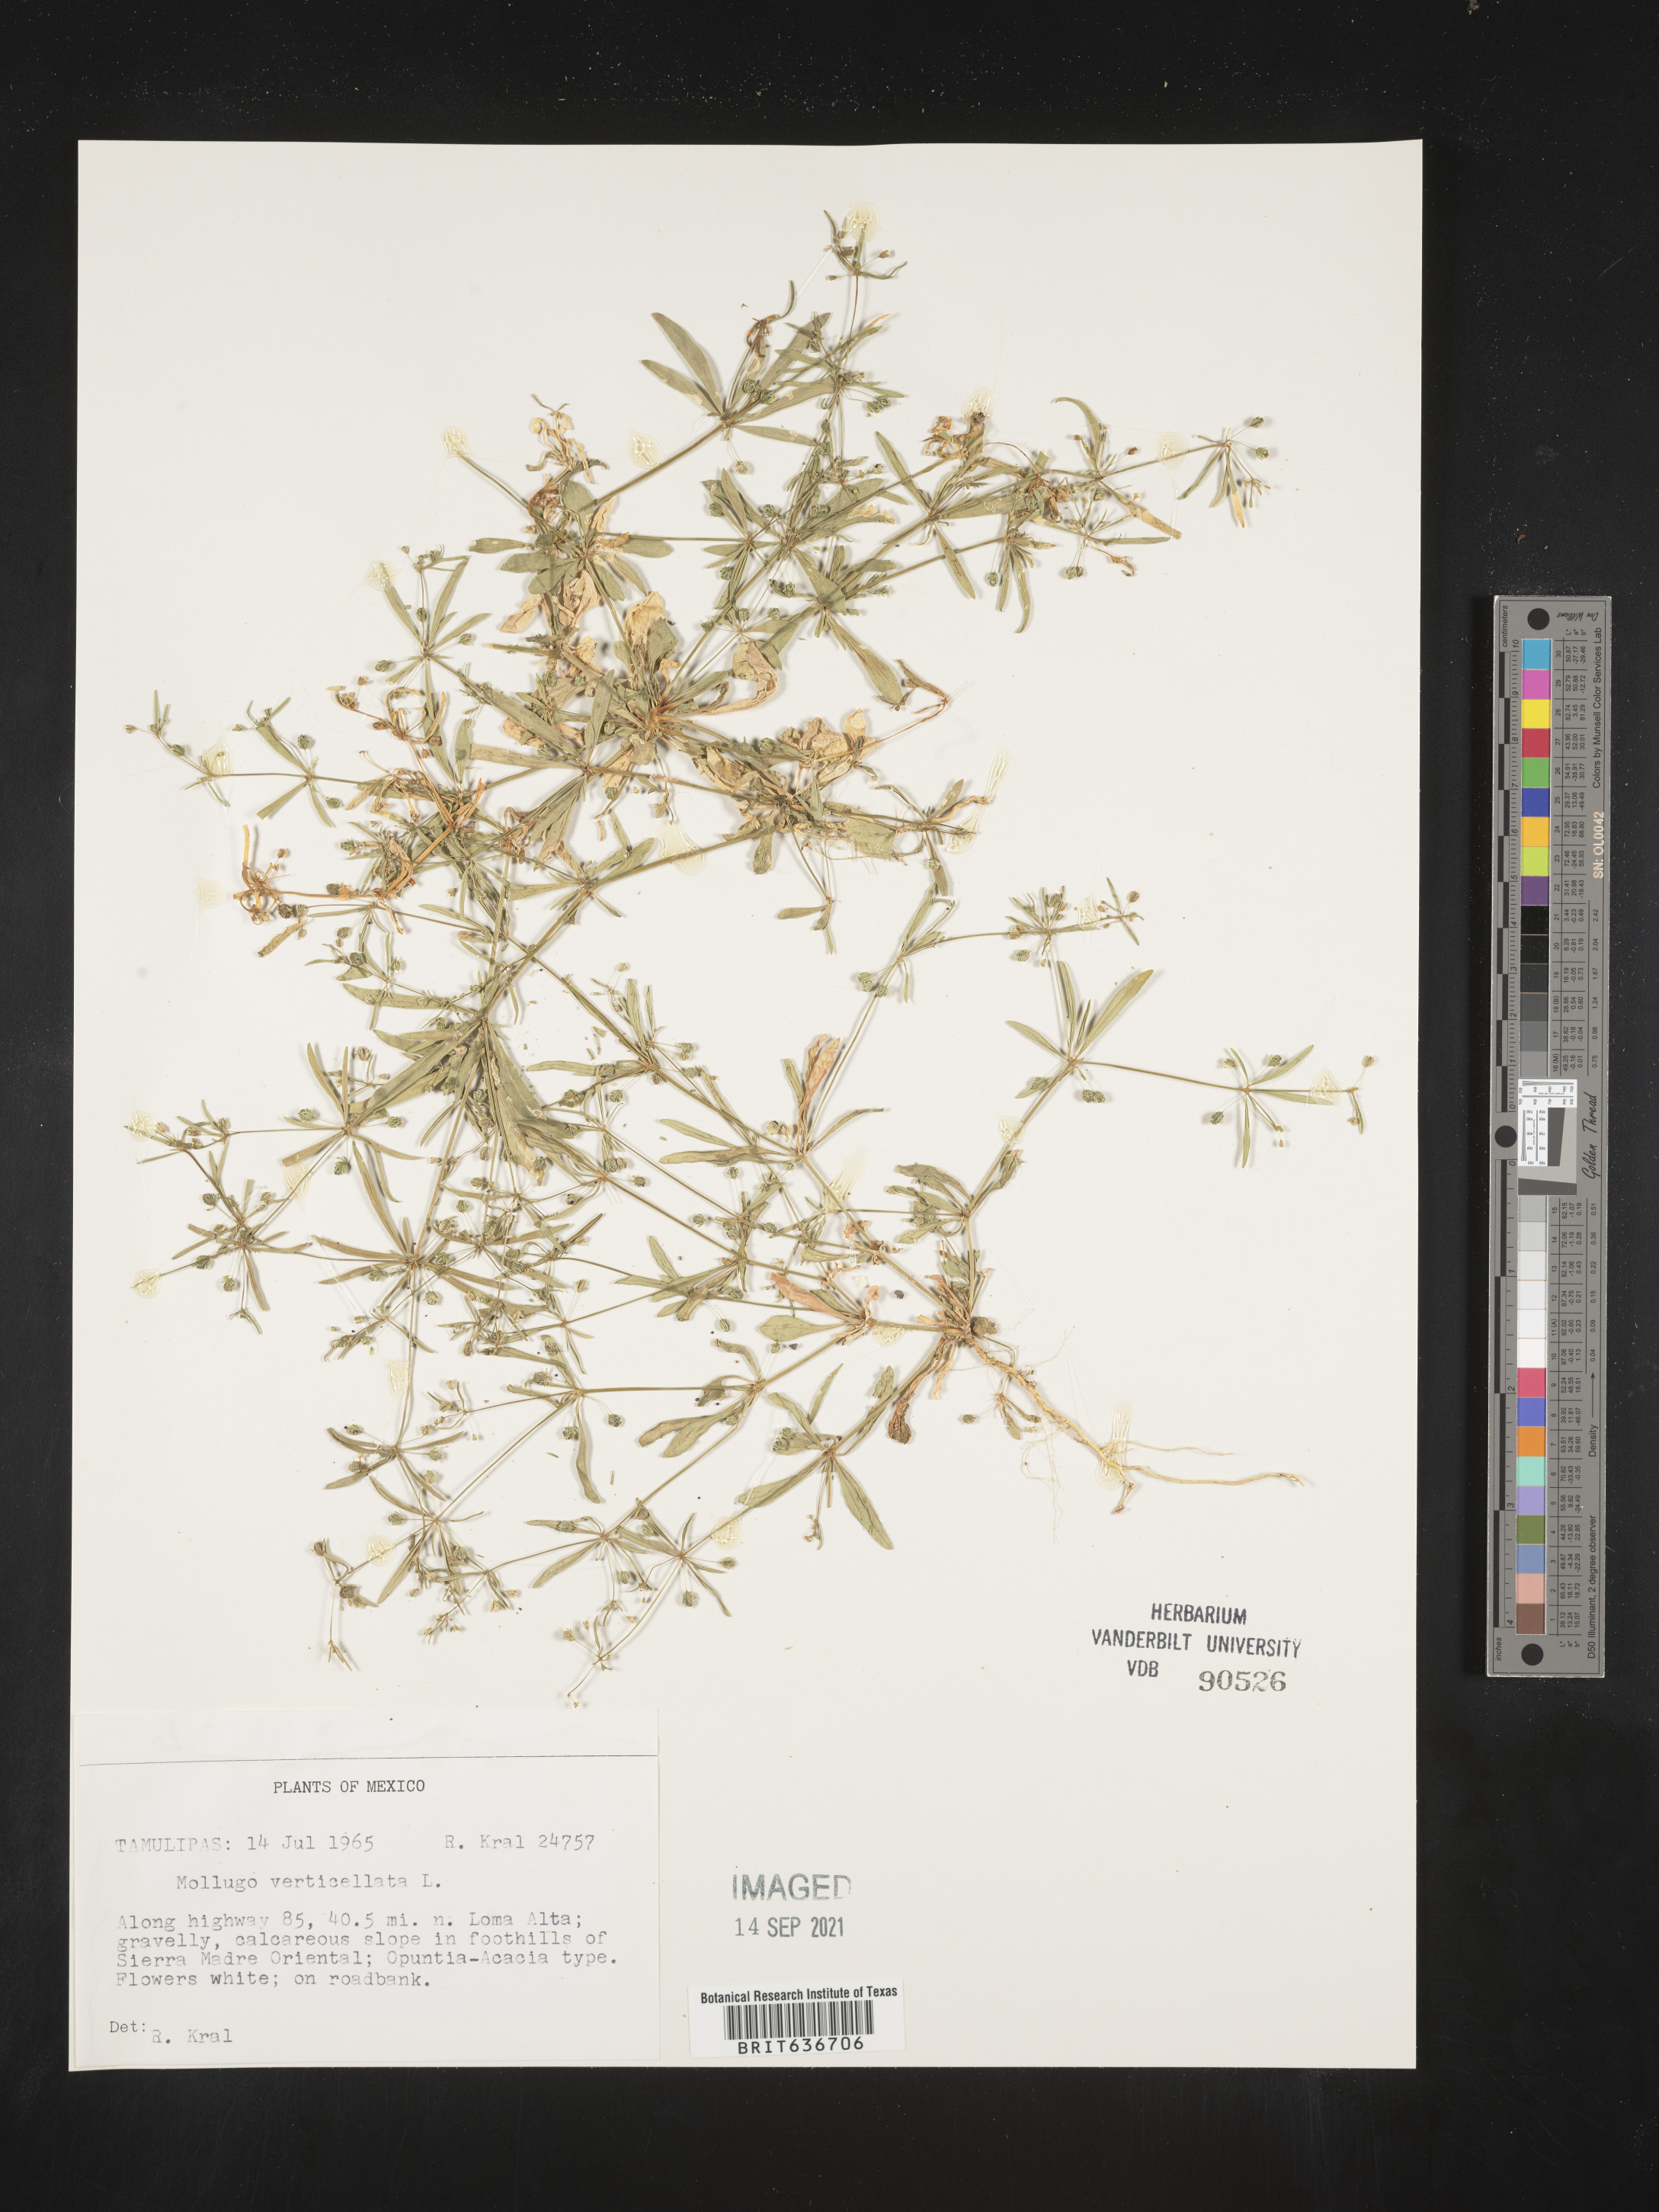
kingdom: Plantae
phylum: Tracheophyta
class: Magnoliopsida
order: Caryophyllales
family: Molluginaceae
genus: Mollugo
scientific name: Mollugo
